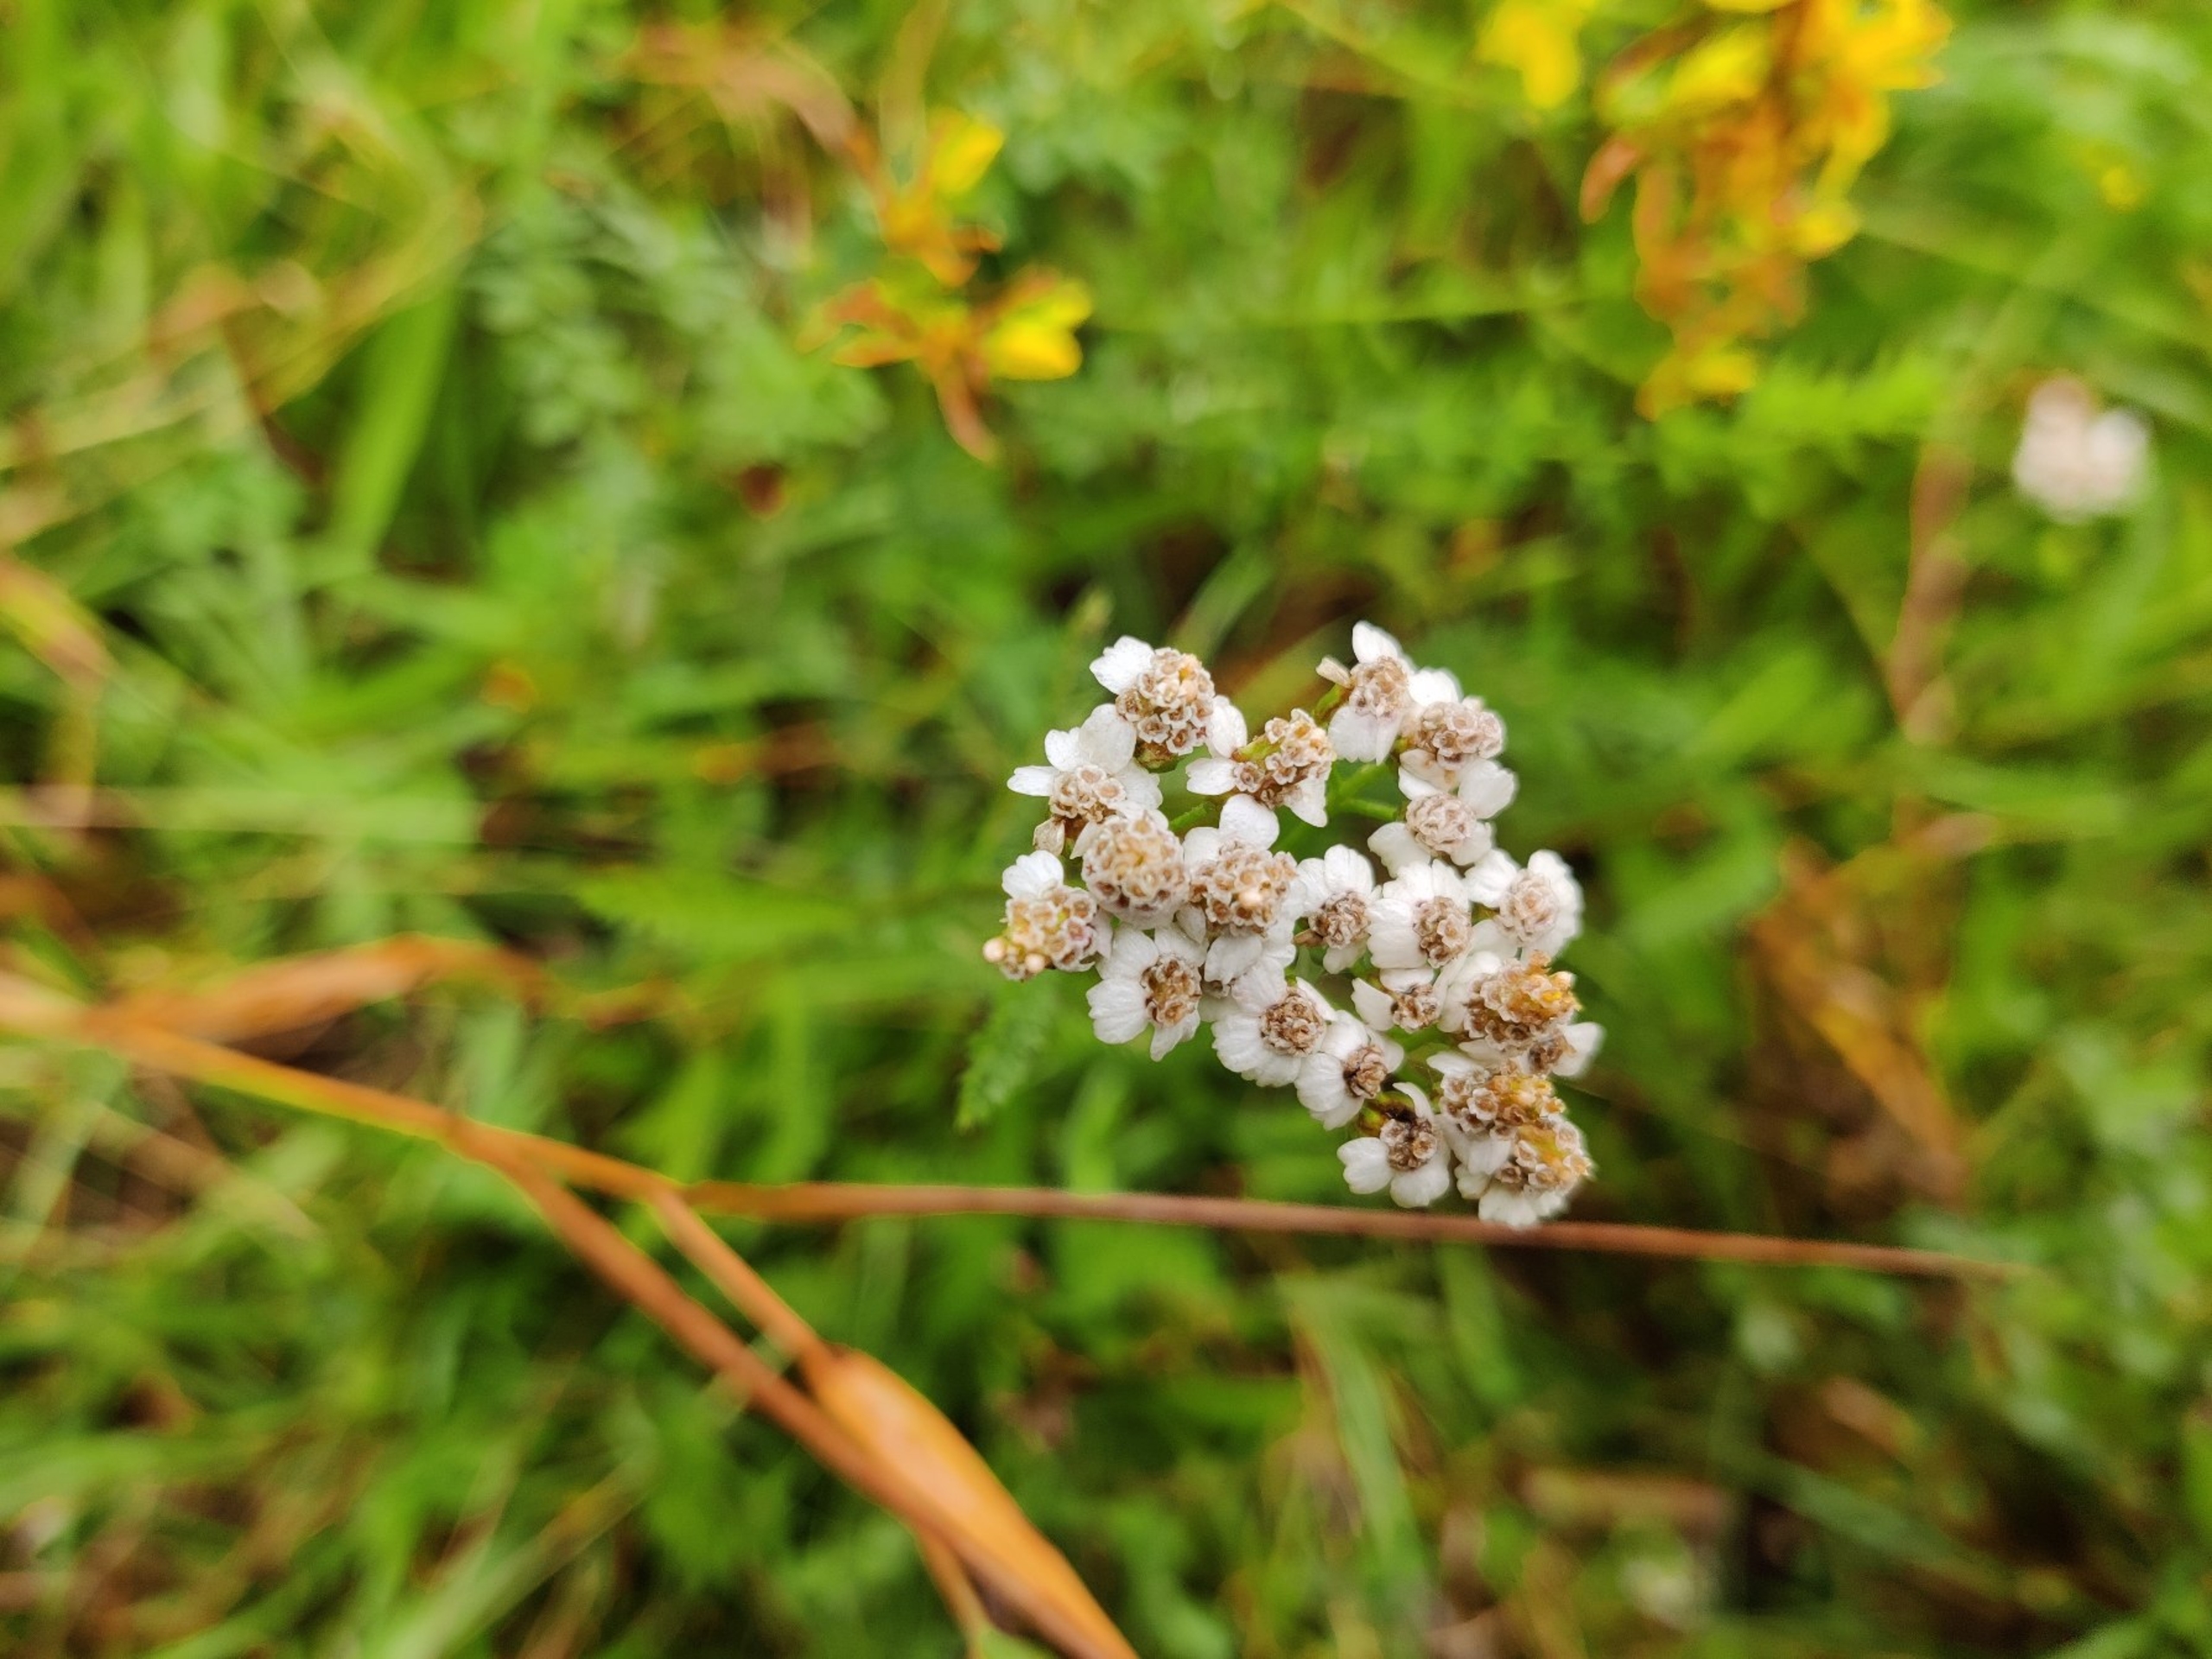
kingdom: Plantae
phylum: Tracheophyta
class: Magnoliopsida
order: Asterales
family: Asteraceae
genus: Achillea
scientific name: Achillea millefolium
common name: Almindelig røllike
